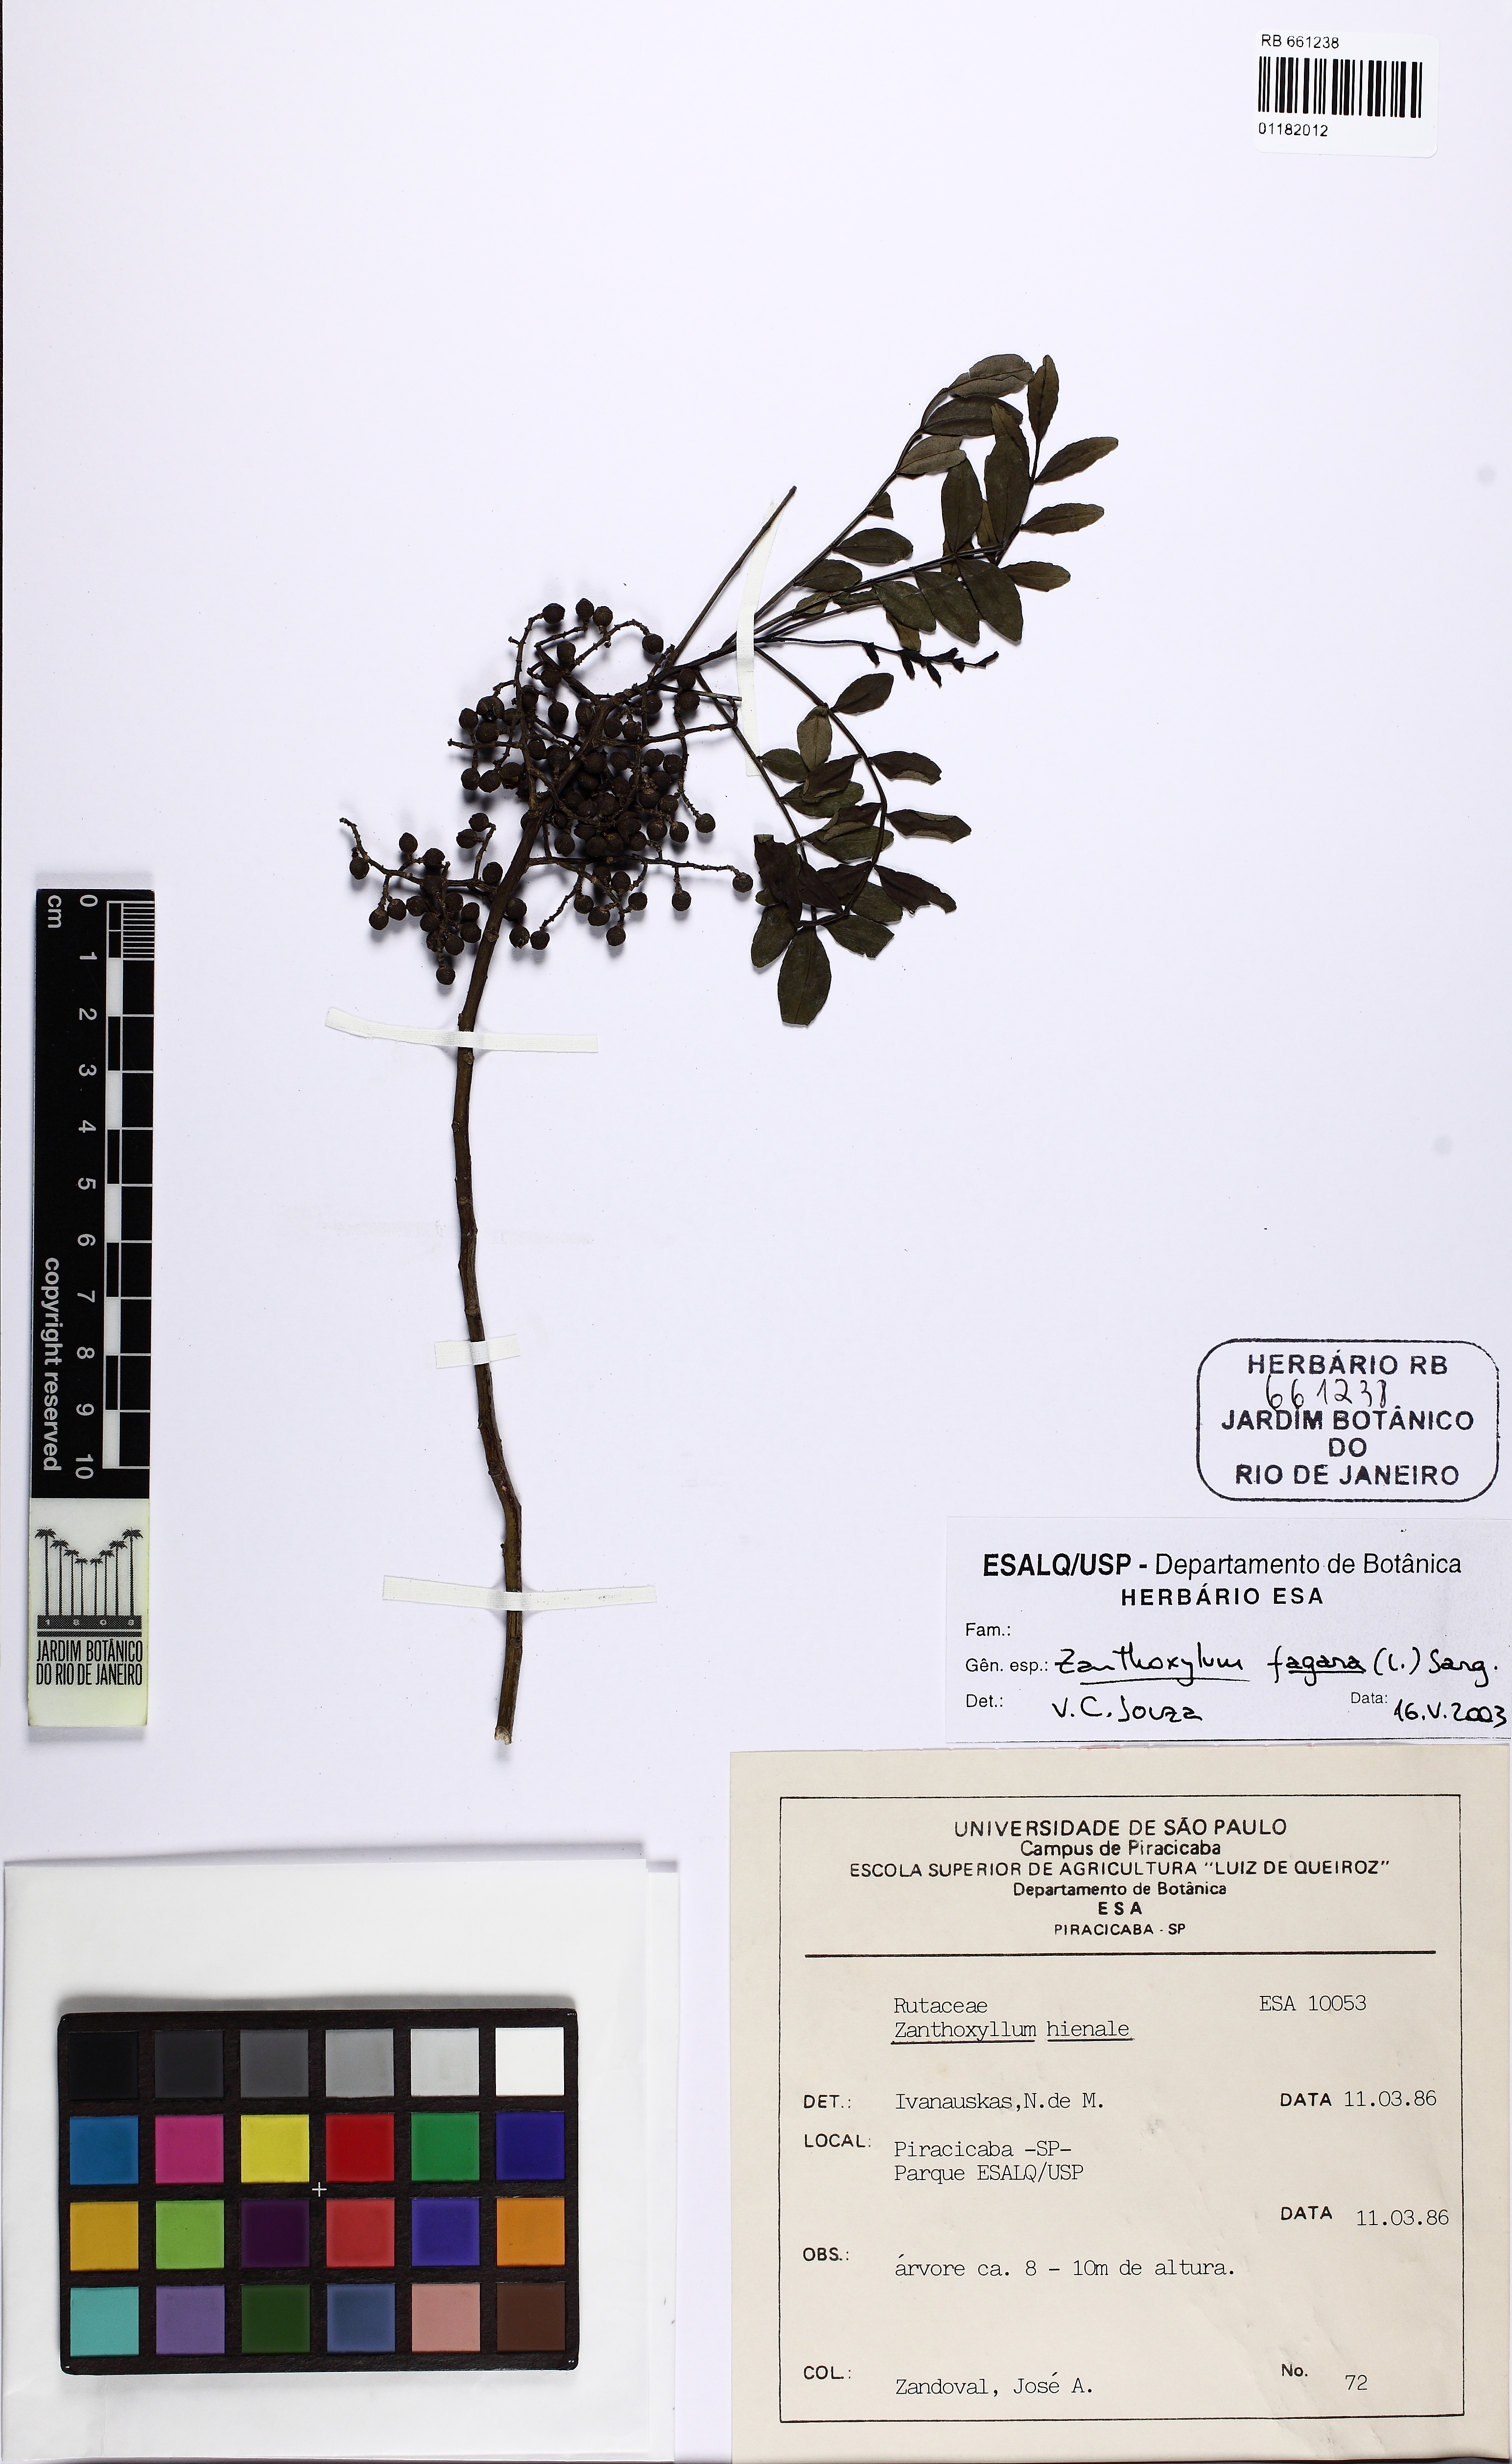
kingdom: Plantae
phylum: Tracheophyta
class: Magnoliopsida
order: Sapindales
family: Rutaceae
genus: Zanthoxylum
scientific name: Zanthoxylum fagara
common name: Lime prickly-ash
